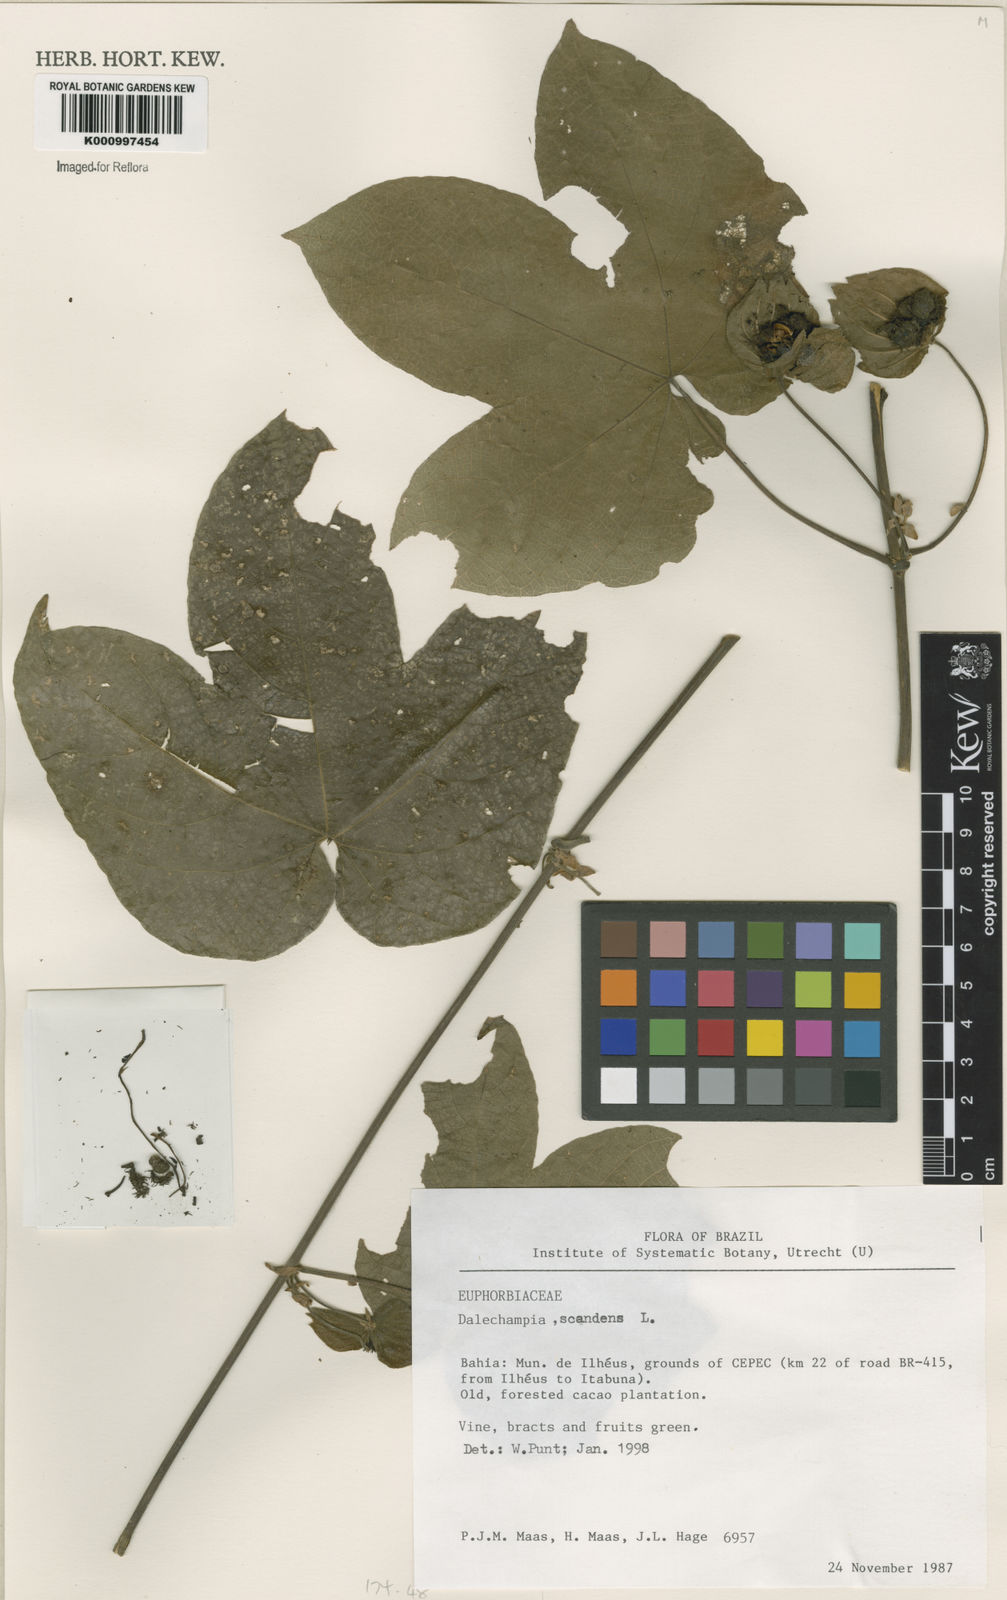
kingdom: Plantae
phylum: Tracheophyta
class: Magnoliopsida
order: Malpighiales
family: Euphorbiaceae
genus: Dalechampia
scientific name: Dalechampia scandens
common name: Spurgecreeper
